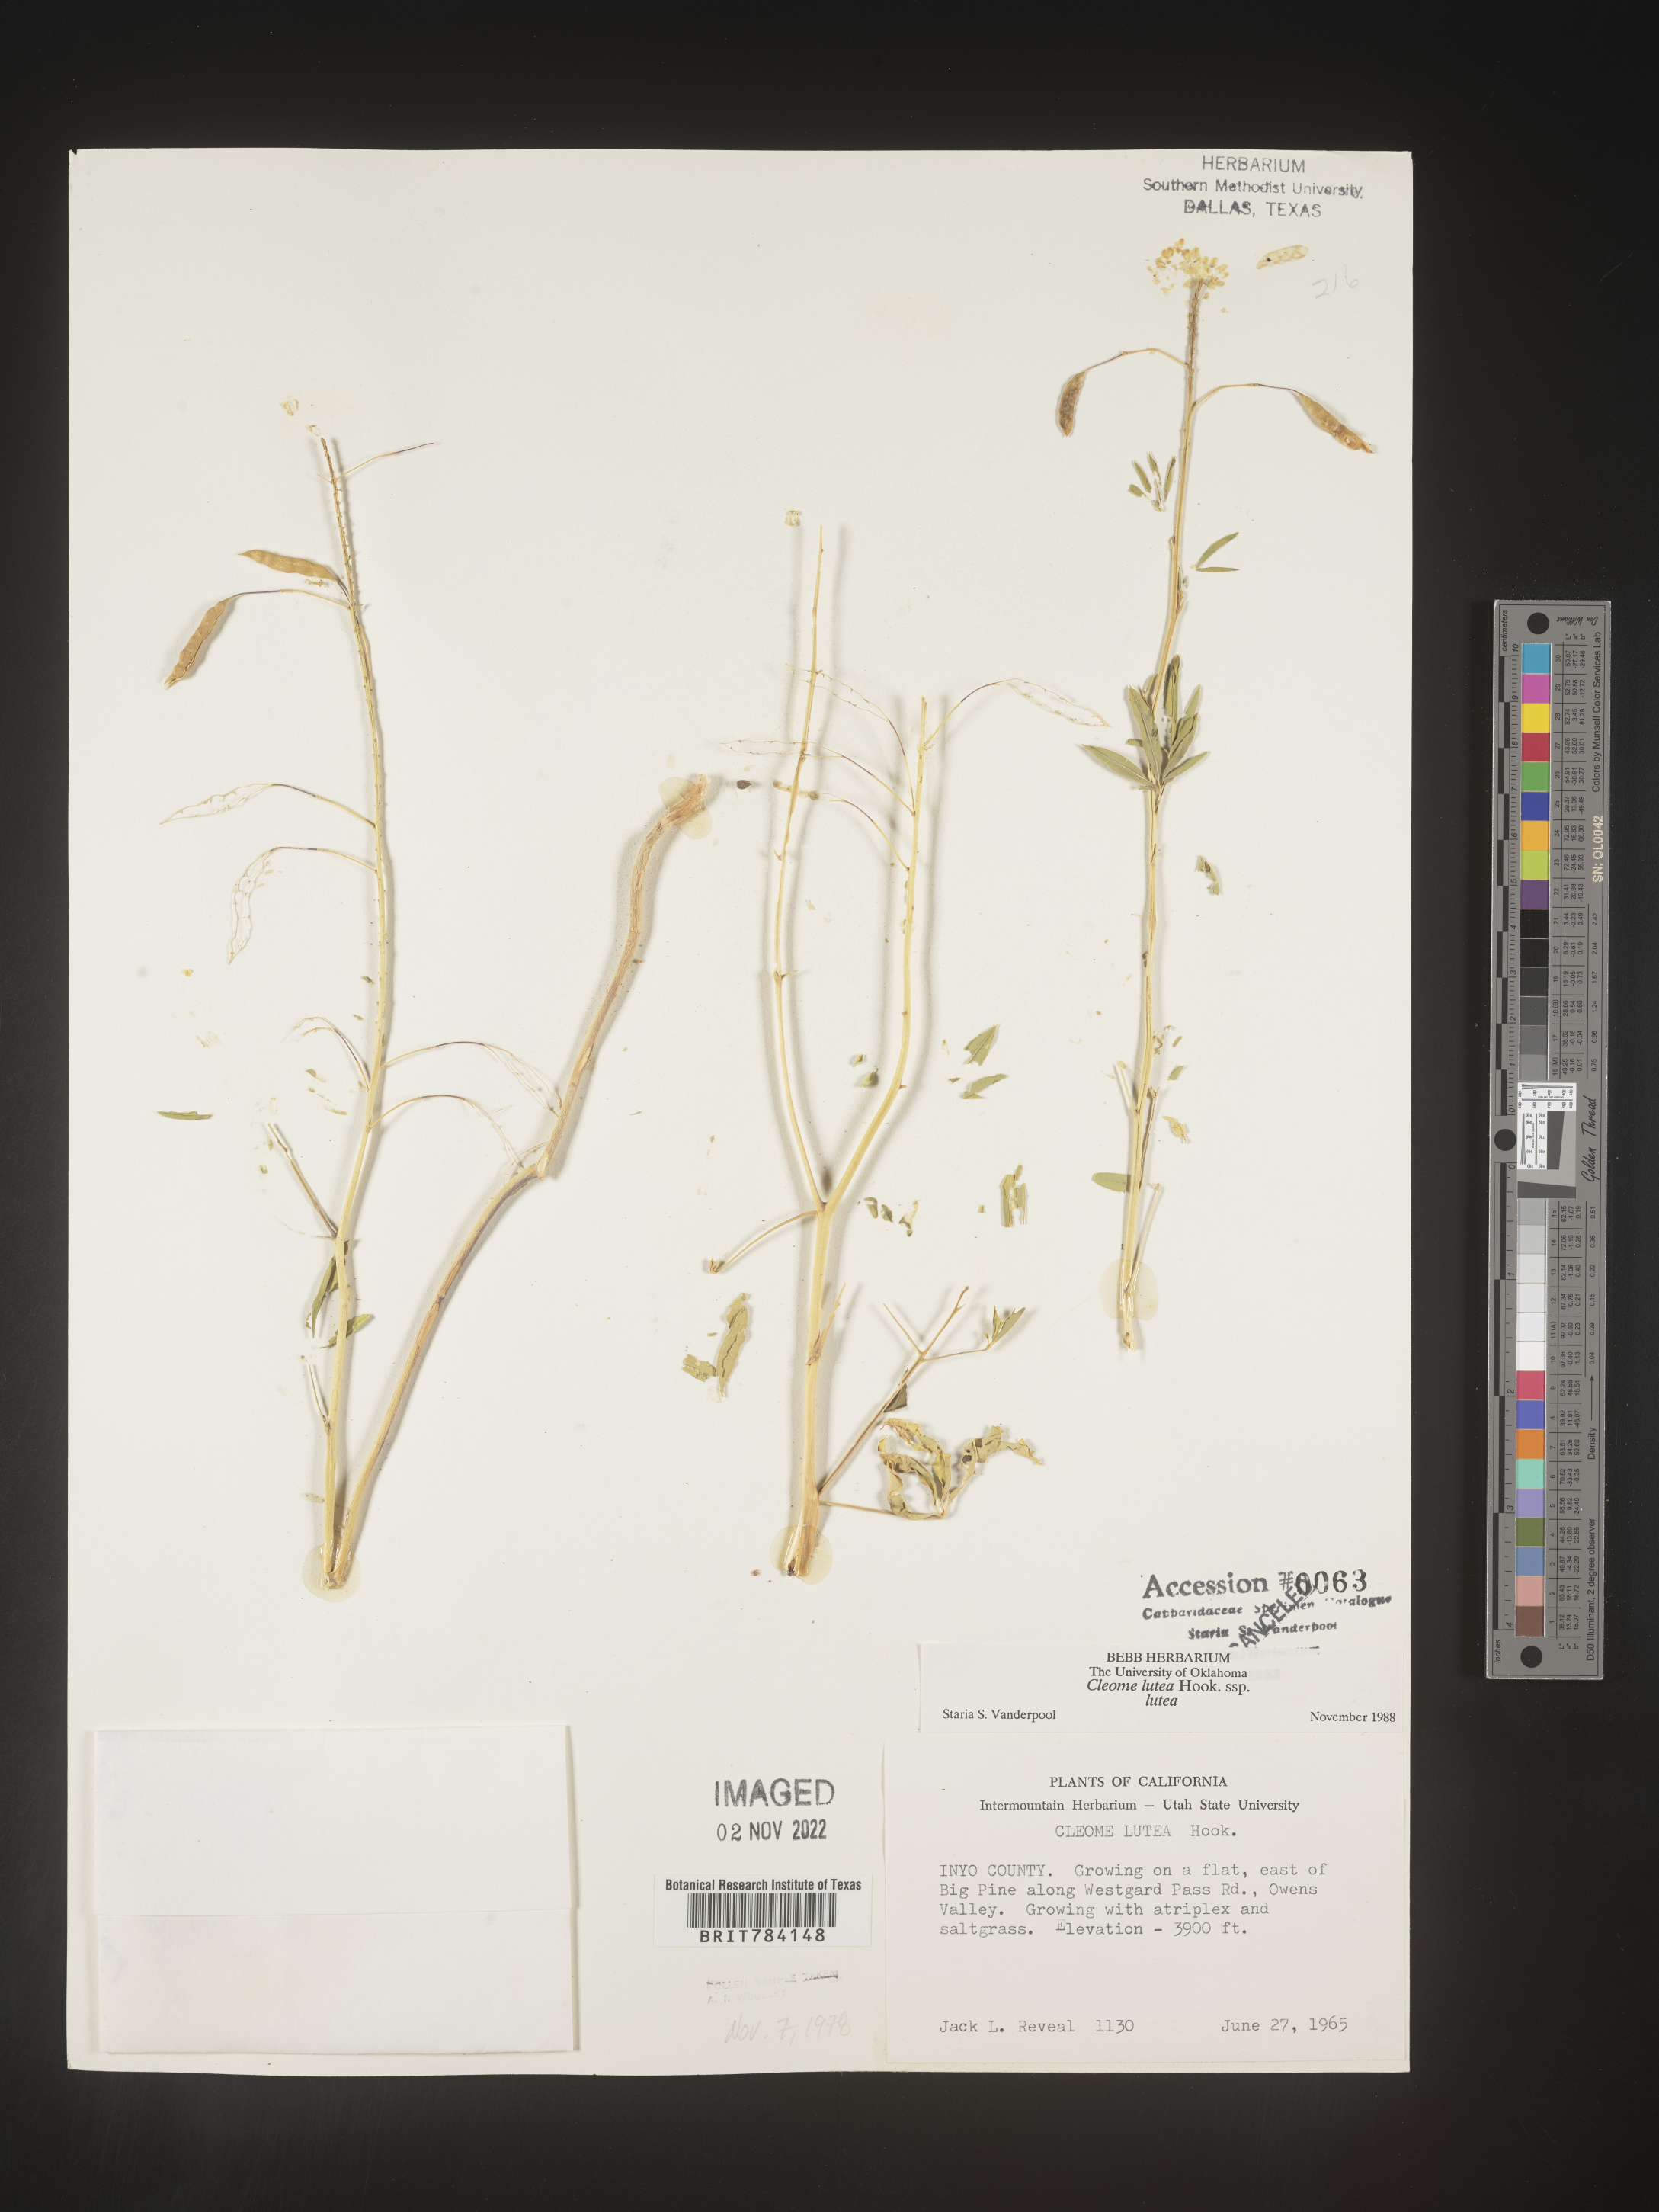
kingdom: Plantae
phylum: Tracheophyta
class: Magnoliopsida
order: Brassicales
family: Cleomaceae
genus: Cleomella
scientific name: Cleomella lutea
